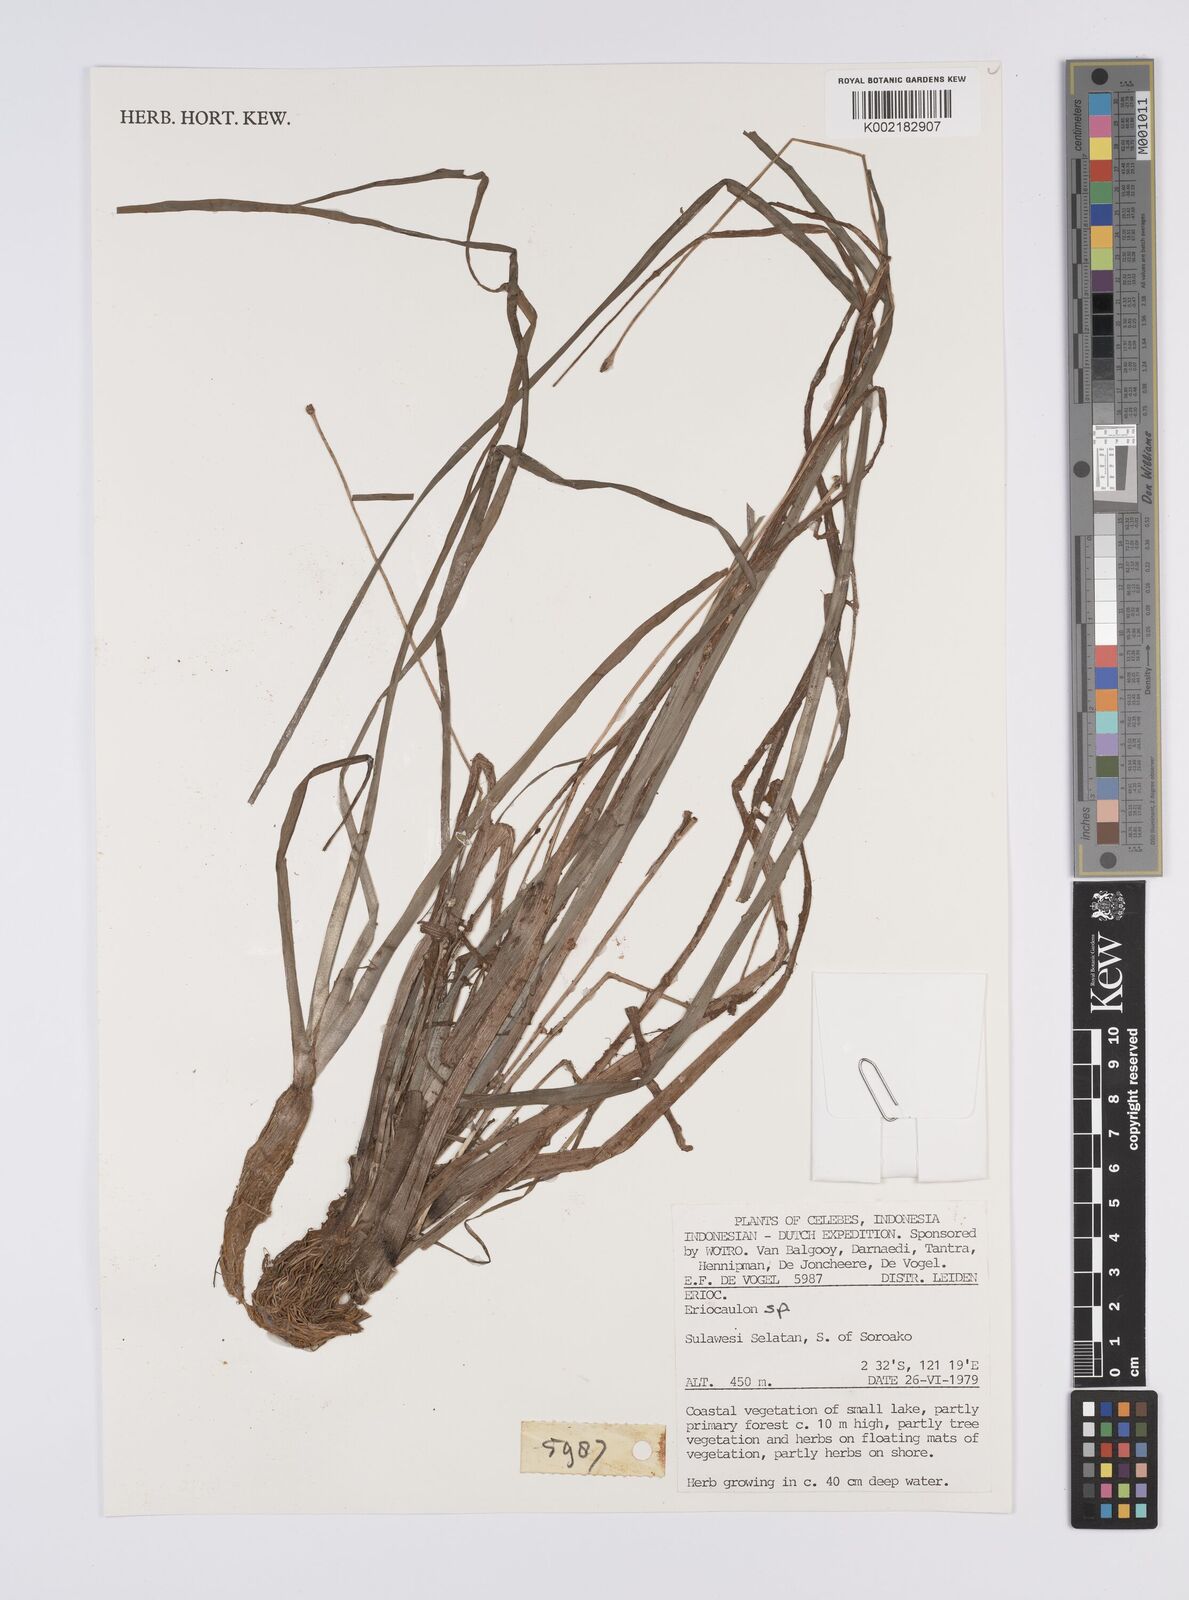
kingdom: Plantae
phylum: Tracheophyta
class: Liliopsida
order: Poales
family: Eriocaulaceae
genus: Eriocaulon
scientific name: Eriocaulon
